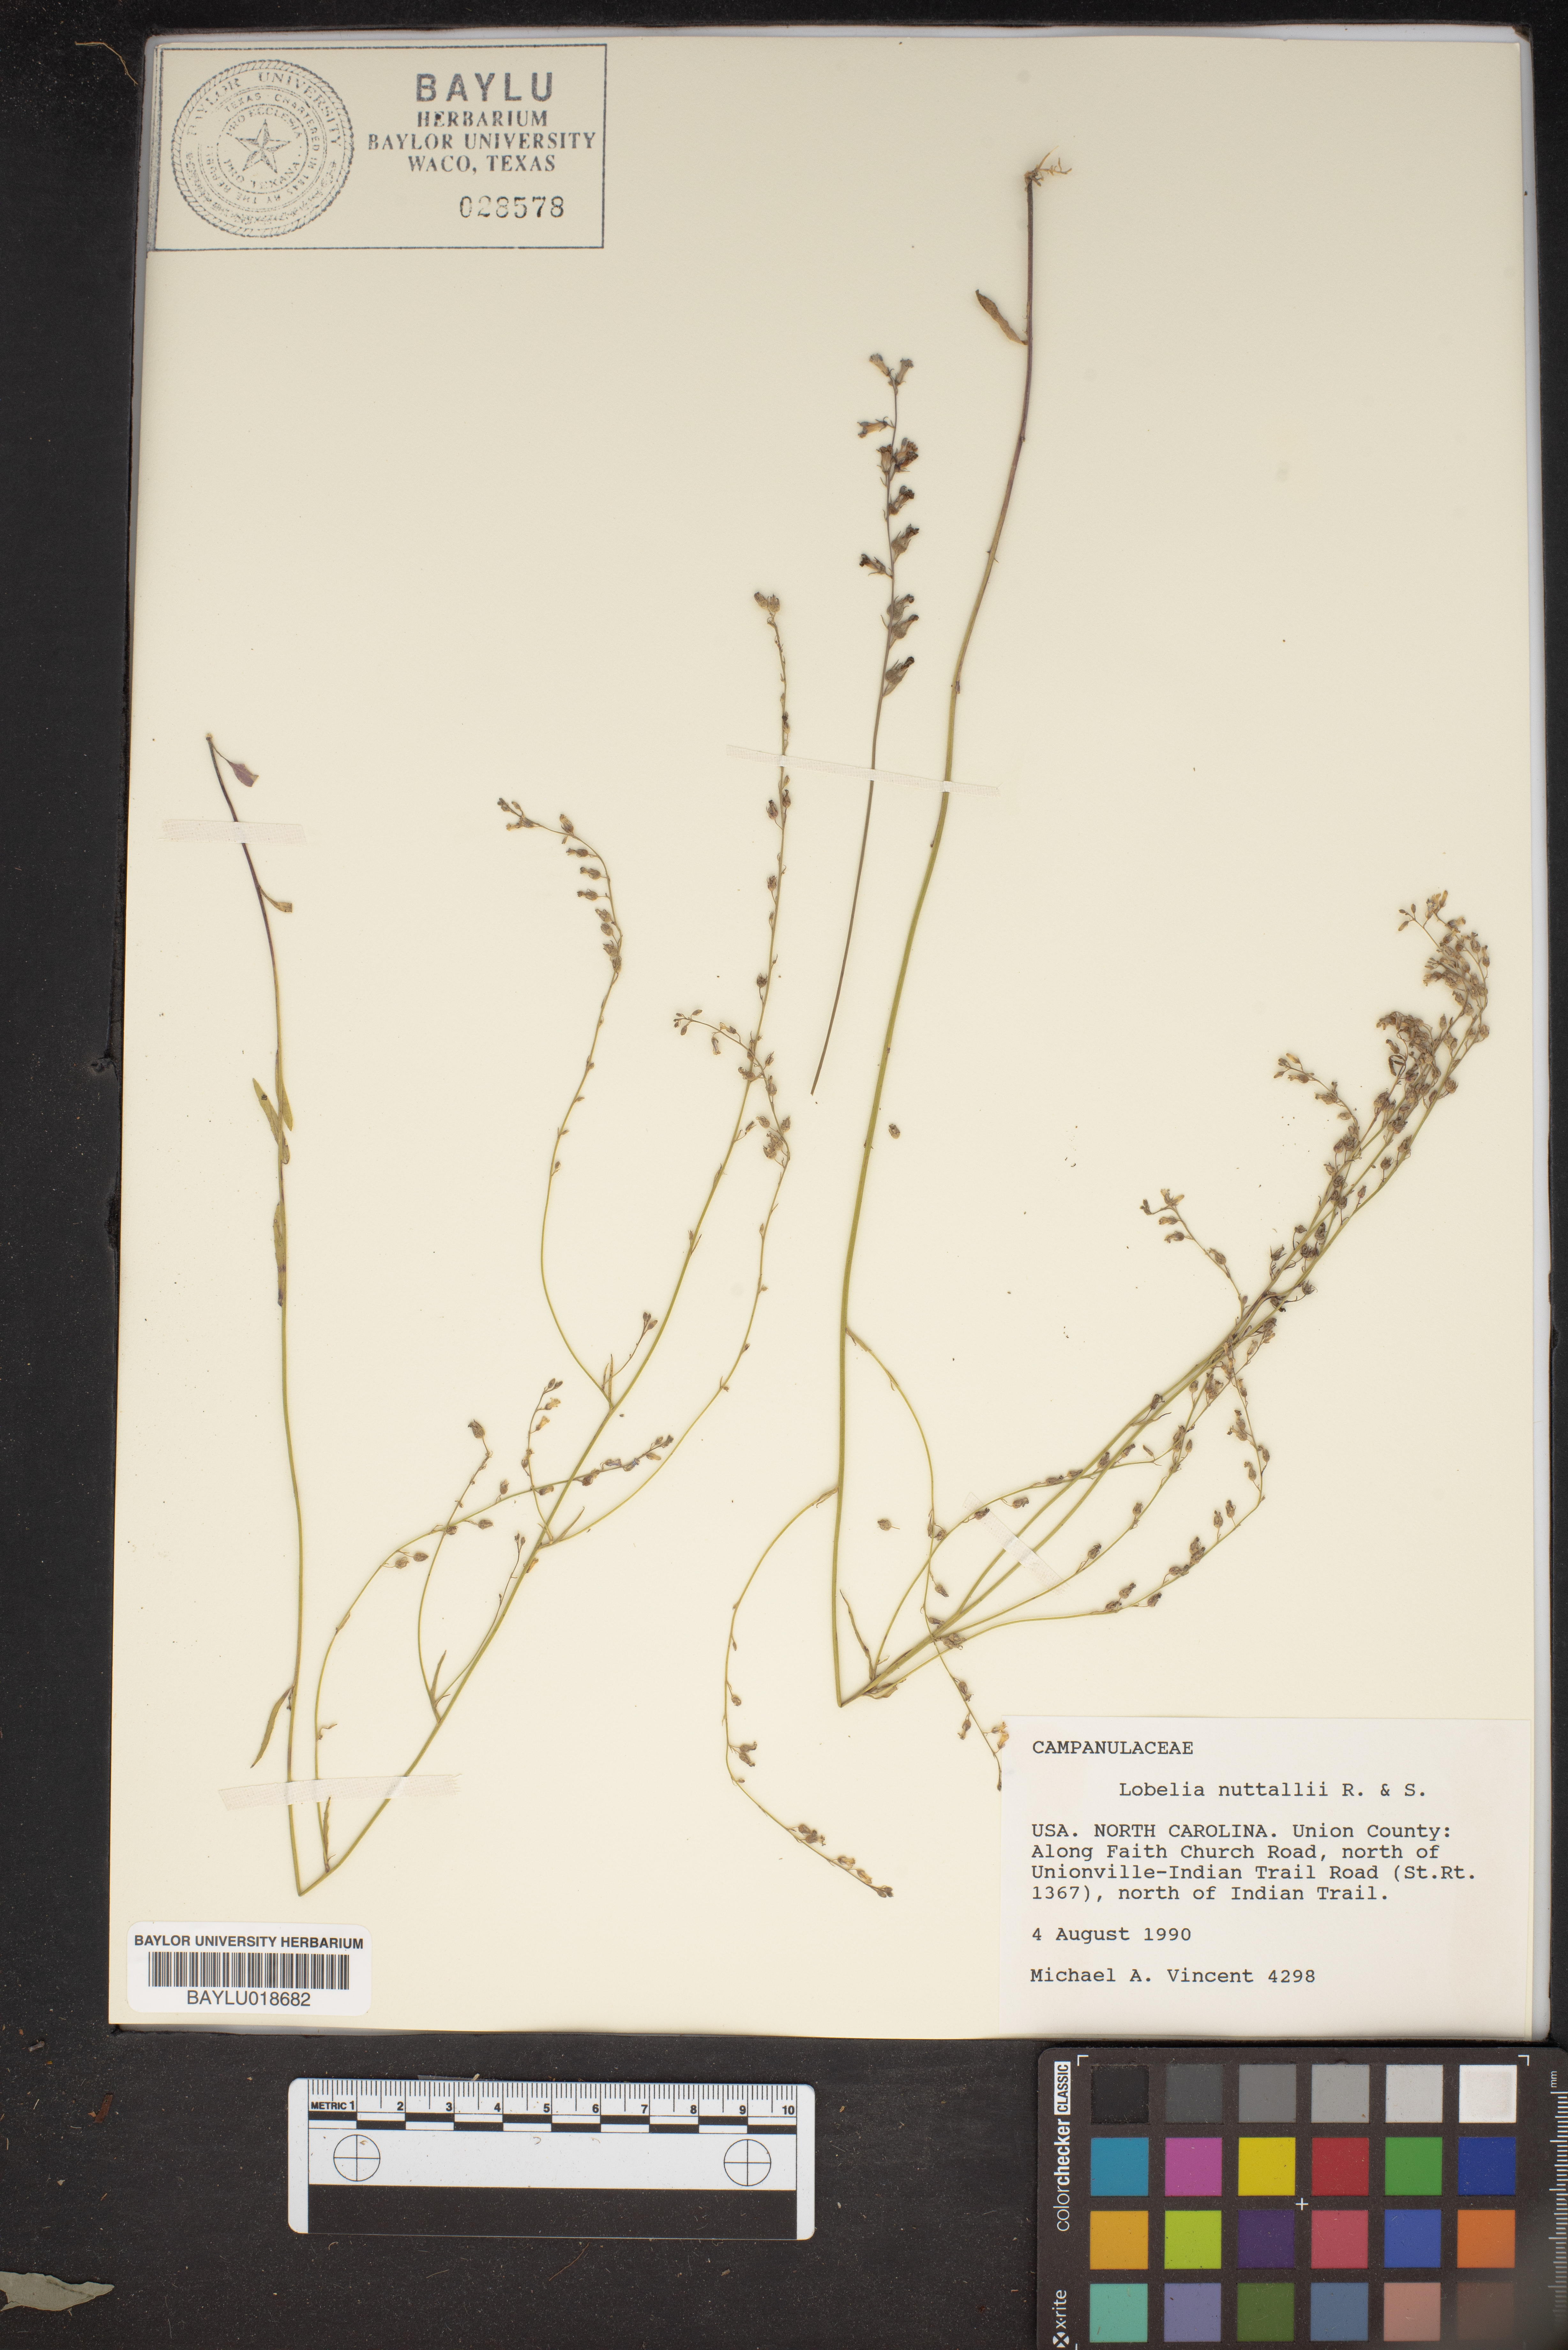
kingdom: Plantae
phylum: Tracheophyta
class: Magnoliopsida
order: Asterales
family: Campanulaceae
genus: Lobelia
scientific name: Lobelia nuttallii
